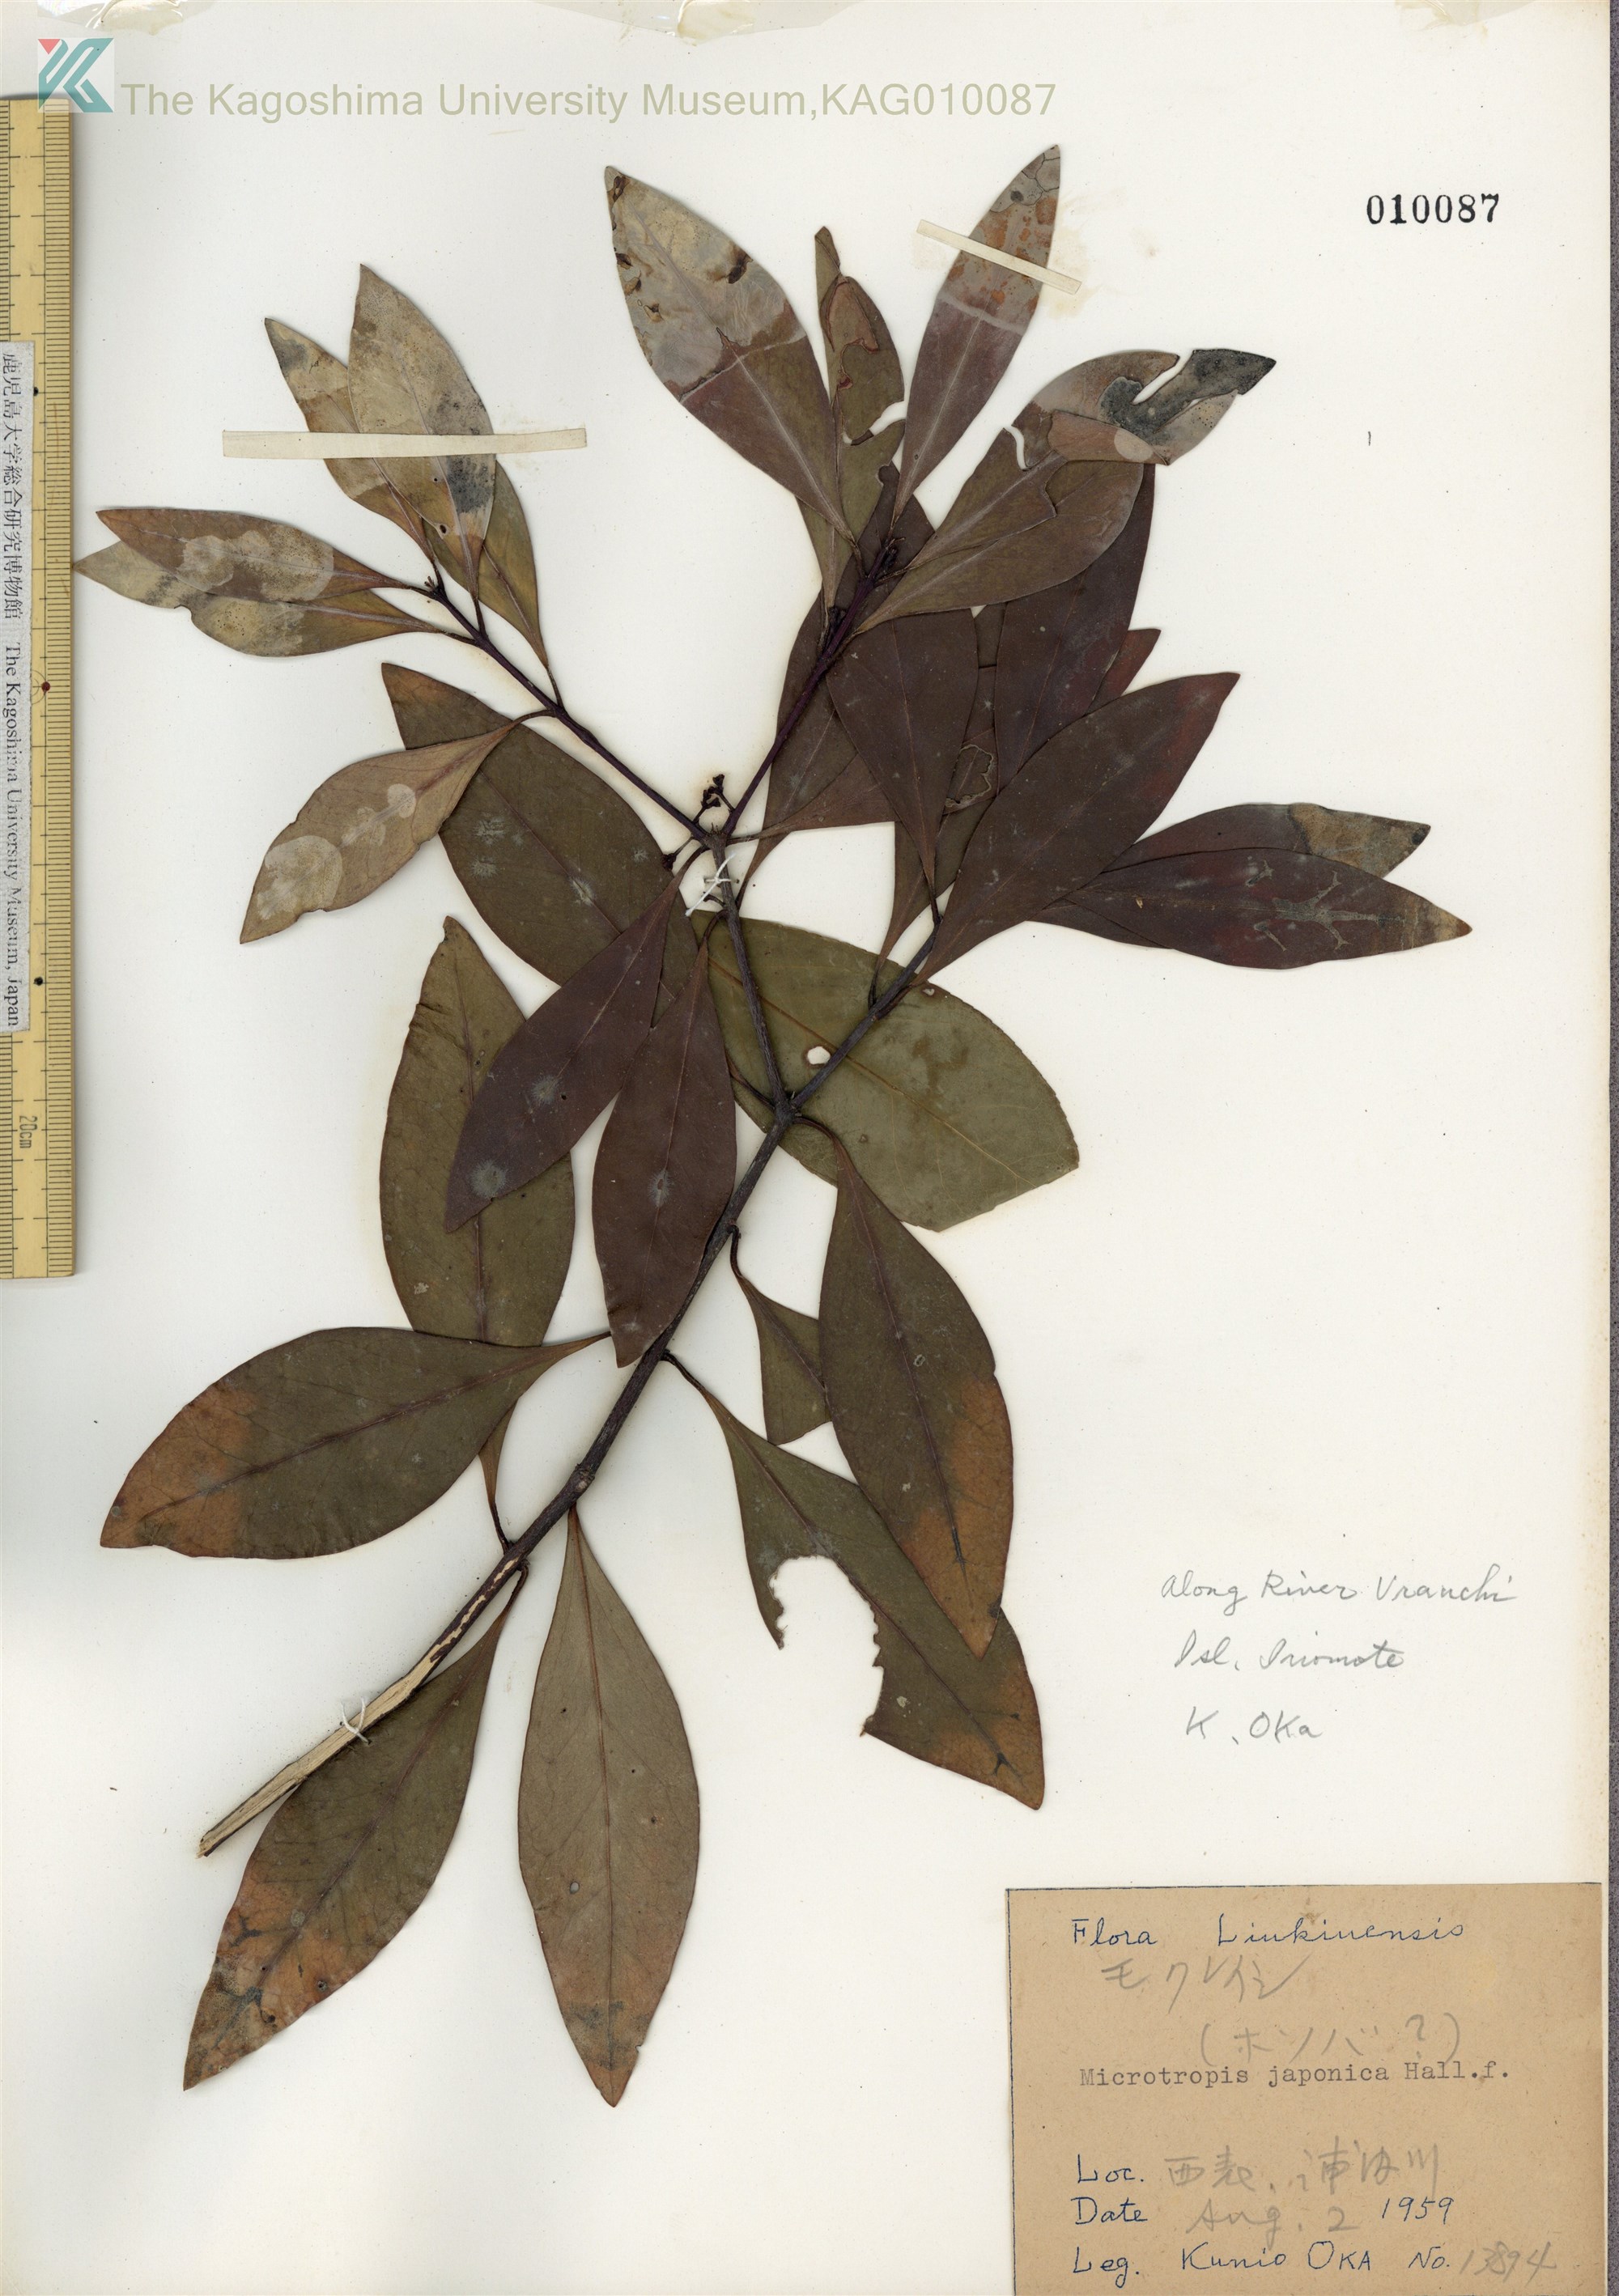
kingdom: Plantae
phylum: Tracheophyta
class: Magnoliopsida
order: Celastrales
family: Celastraceae
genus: Microtropis
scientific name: Microtropis japonica
